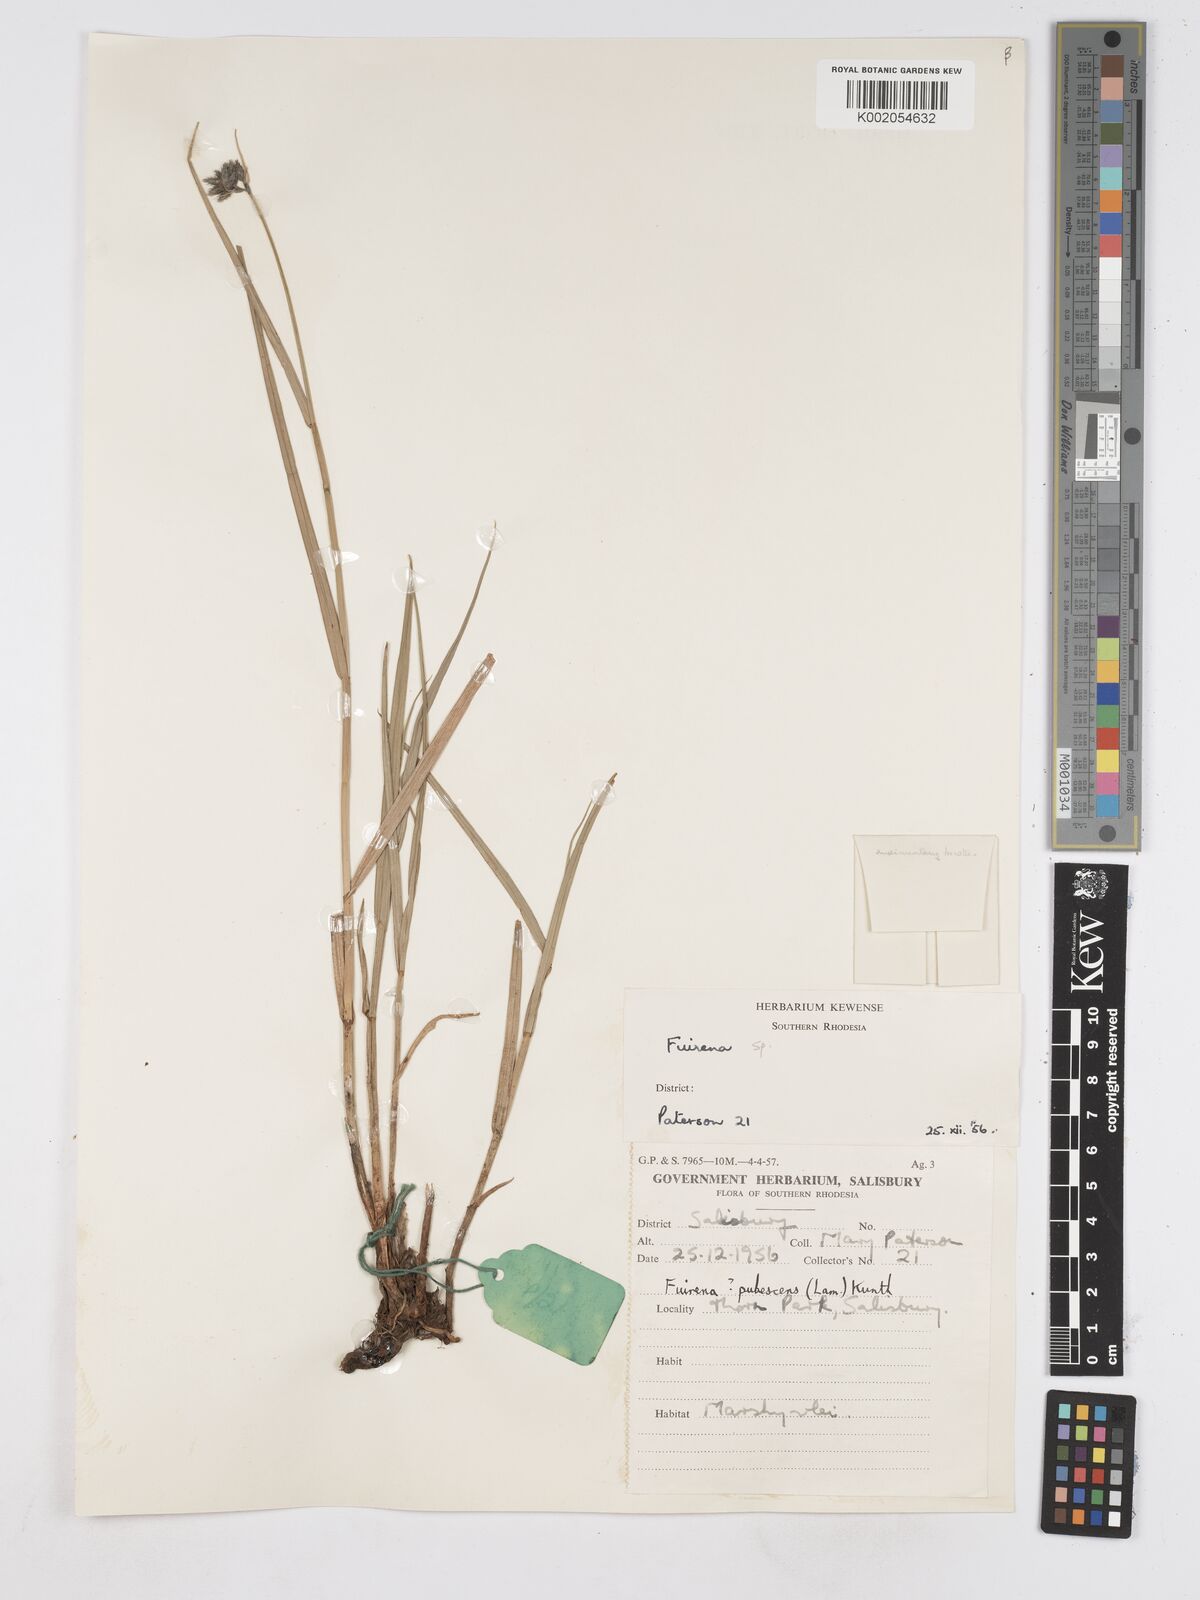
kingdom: Plantae
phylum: Tracheophyta
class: Liliopsida
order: Poales
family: Cyperaceae
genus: Fuirena
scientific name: Fuirena coerulescens
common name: Blue umbrella-sedge
